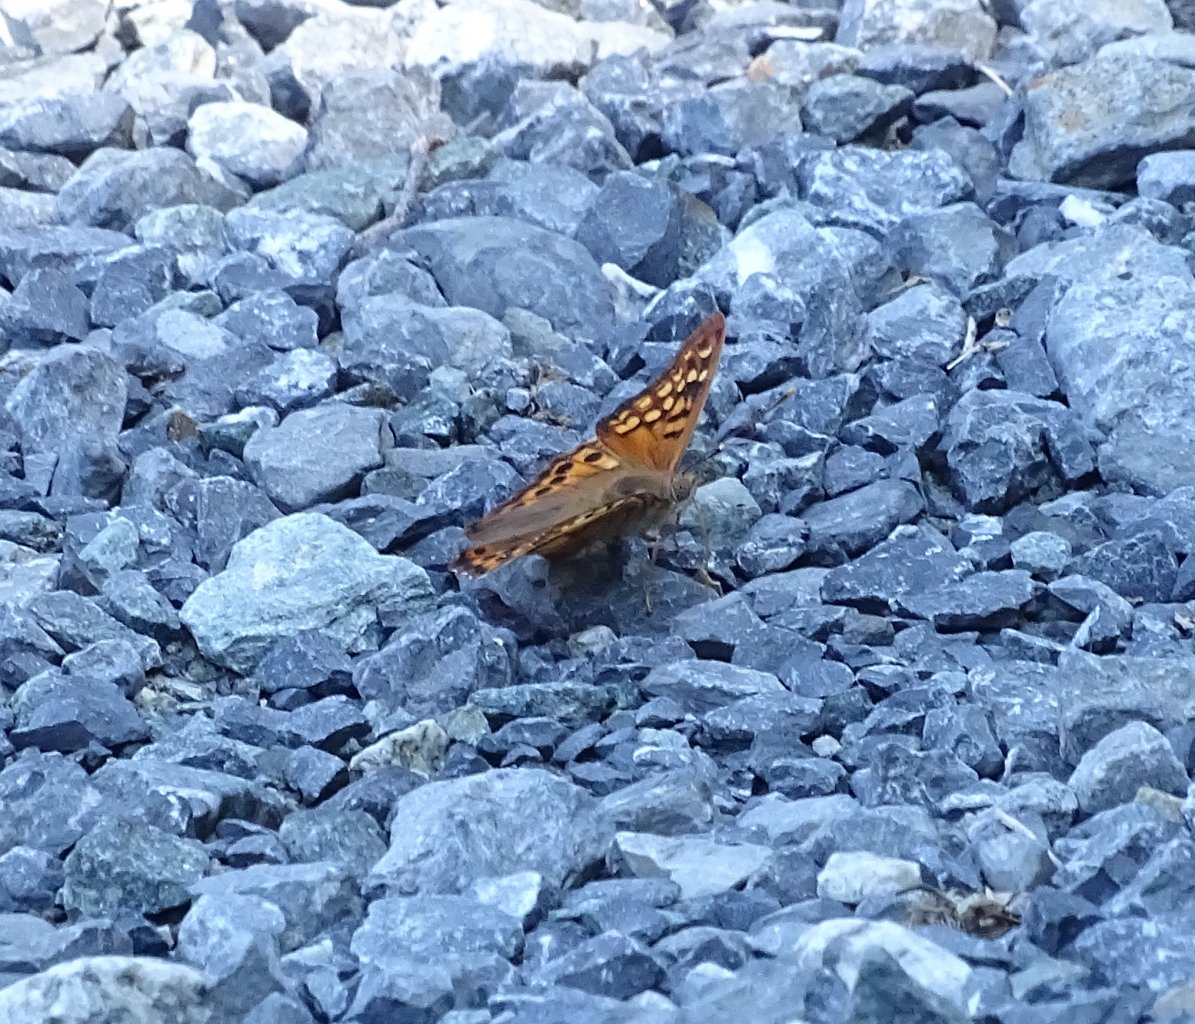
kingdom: Animalia
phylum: Arthropoda
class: Insecta
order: Lepidoptera
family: Nymphalidae
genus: Asterocampa
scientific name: Asterocampa clyton
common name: Tawny Emperor
